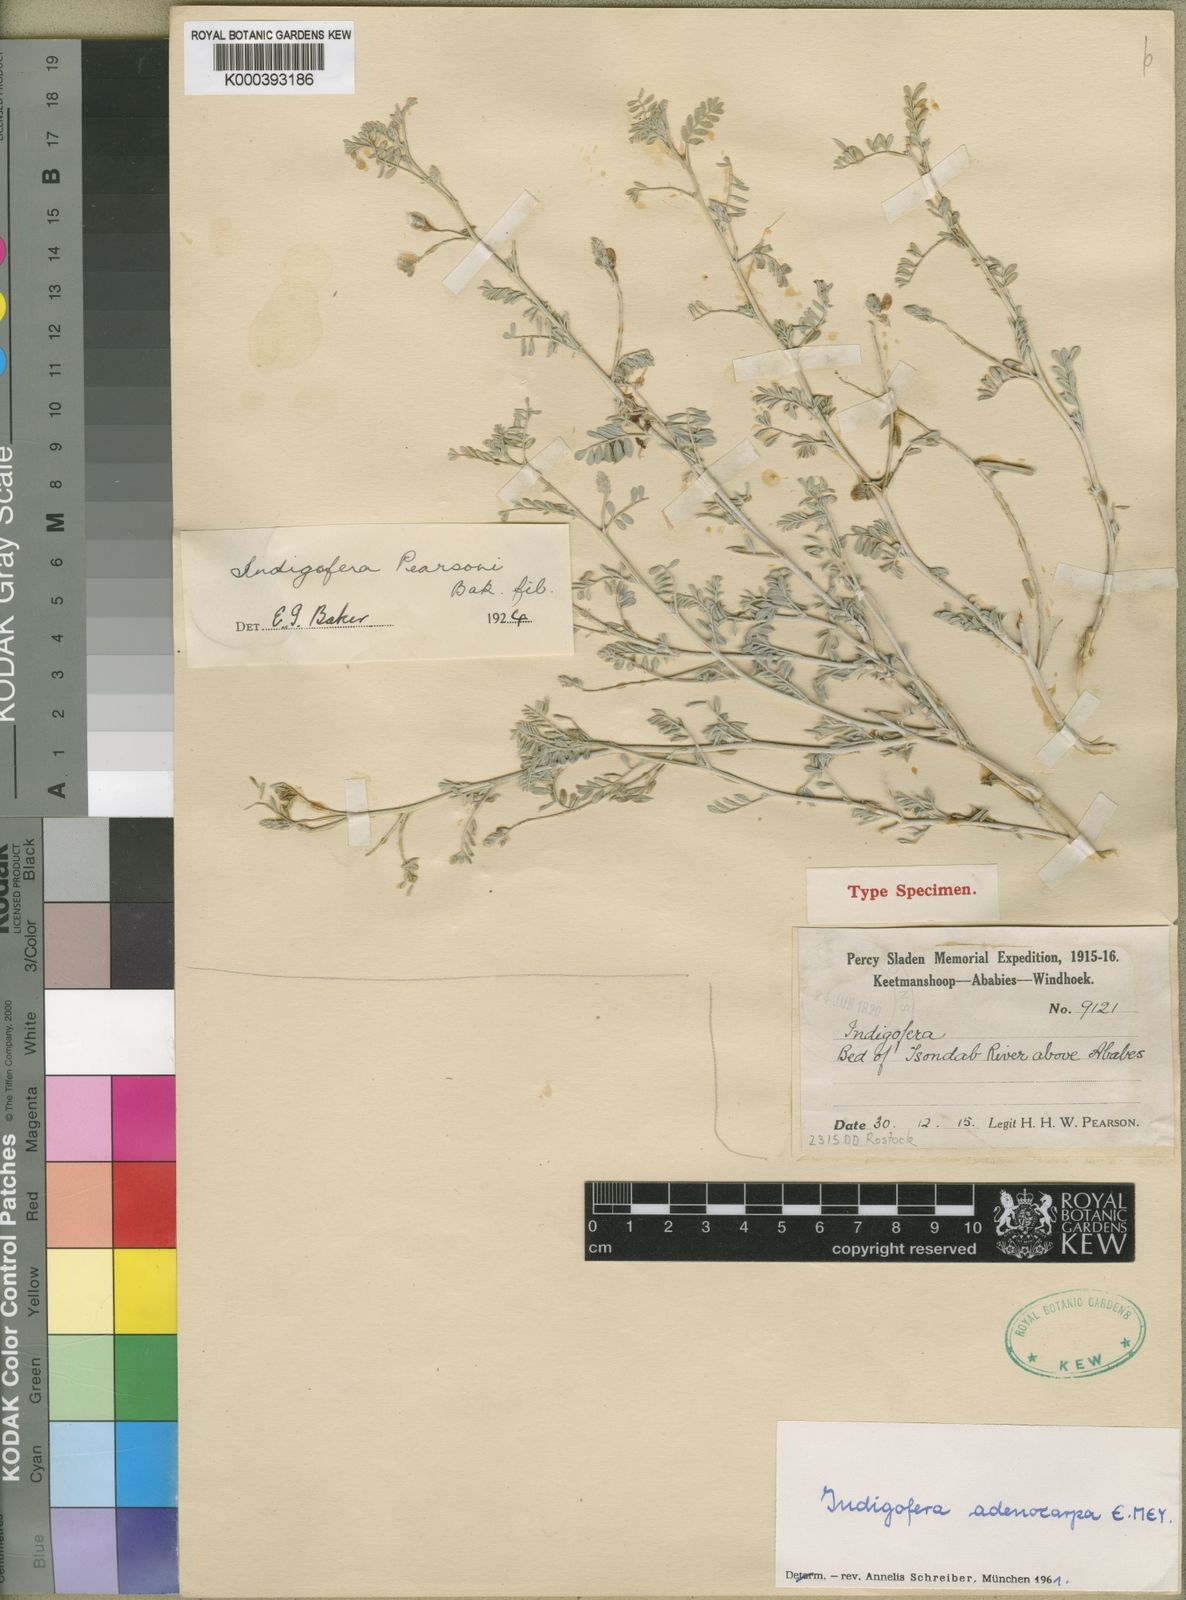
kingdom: Plantae
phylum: Tracheophyta
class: Magnoliopsida
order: Fabales
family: Fabaceae
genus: Indigofera
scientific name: Indigofera heterotricha
